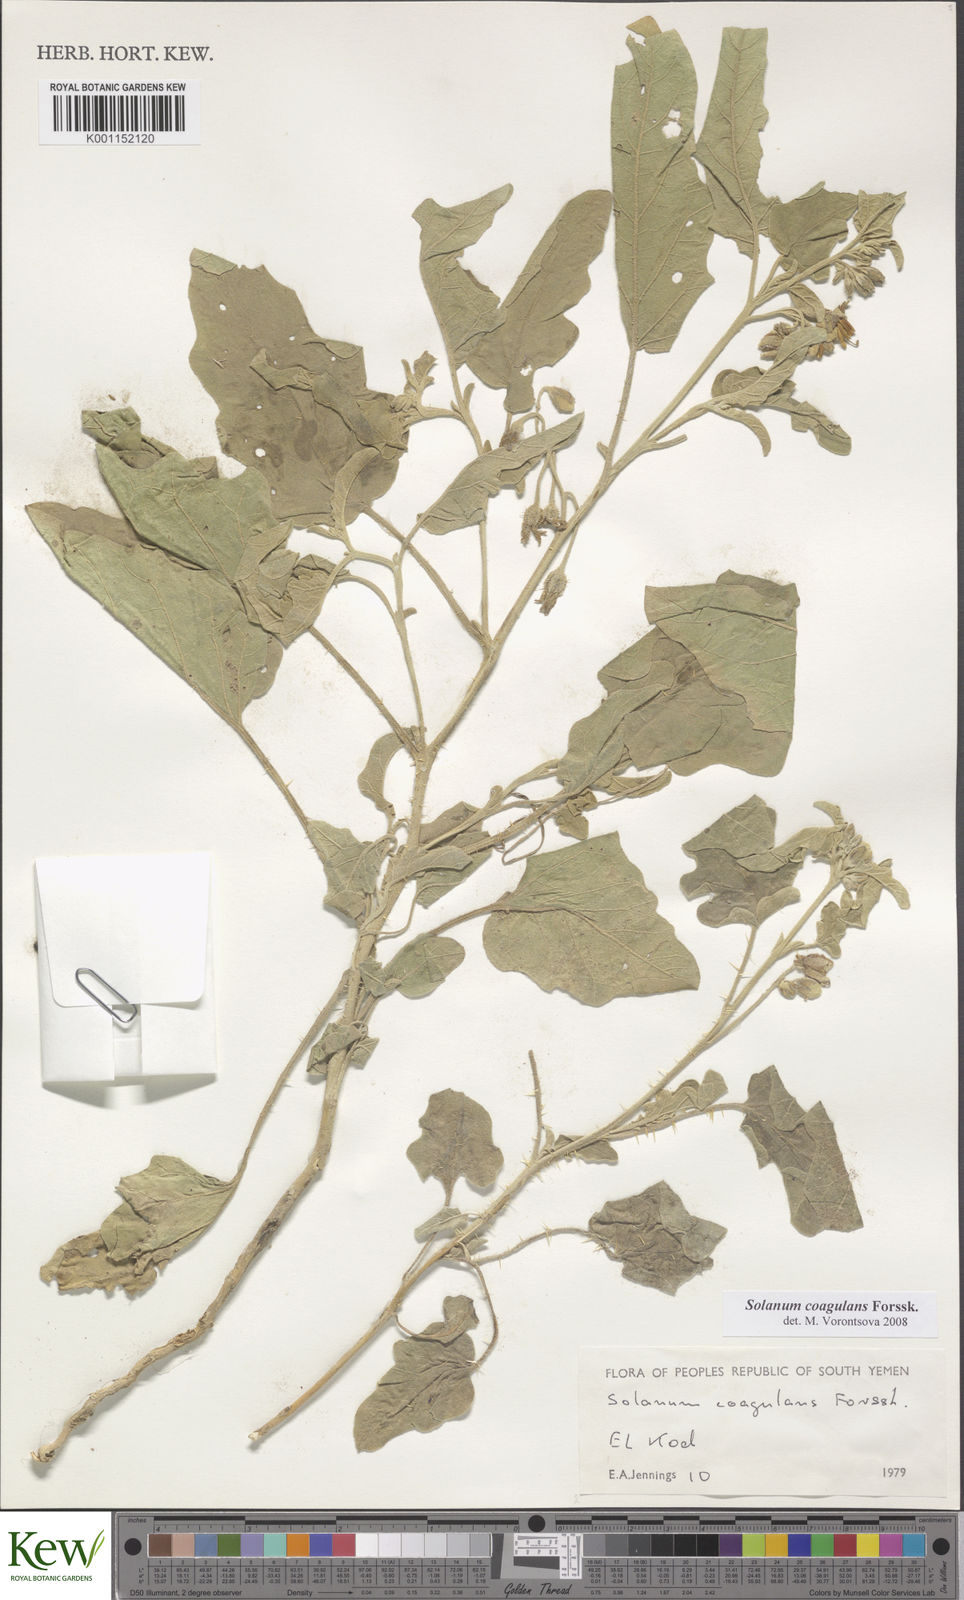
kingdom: Plantae
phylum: Tracheophyta
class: Magnoliopsida
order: Solanales
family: Solanaceae
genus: Solanum
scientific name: Solanum coagulans
